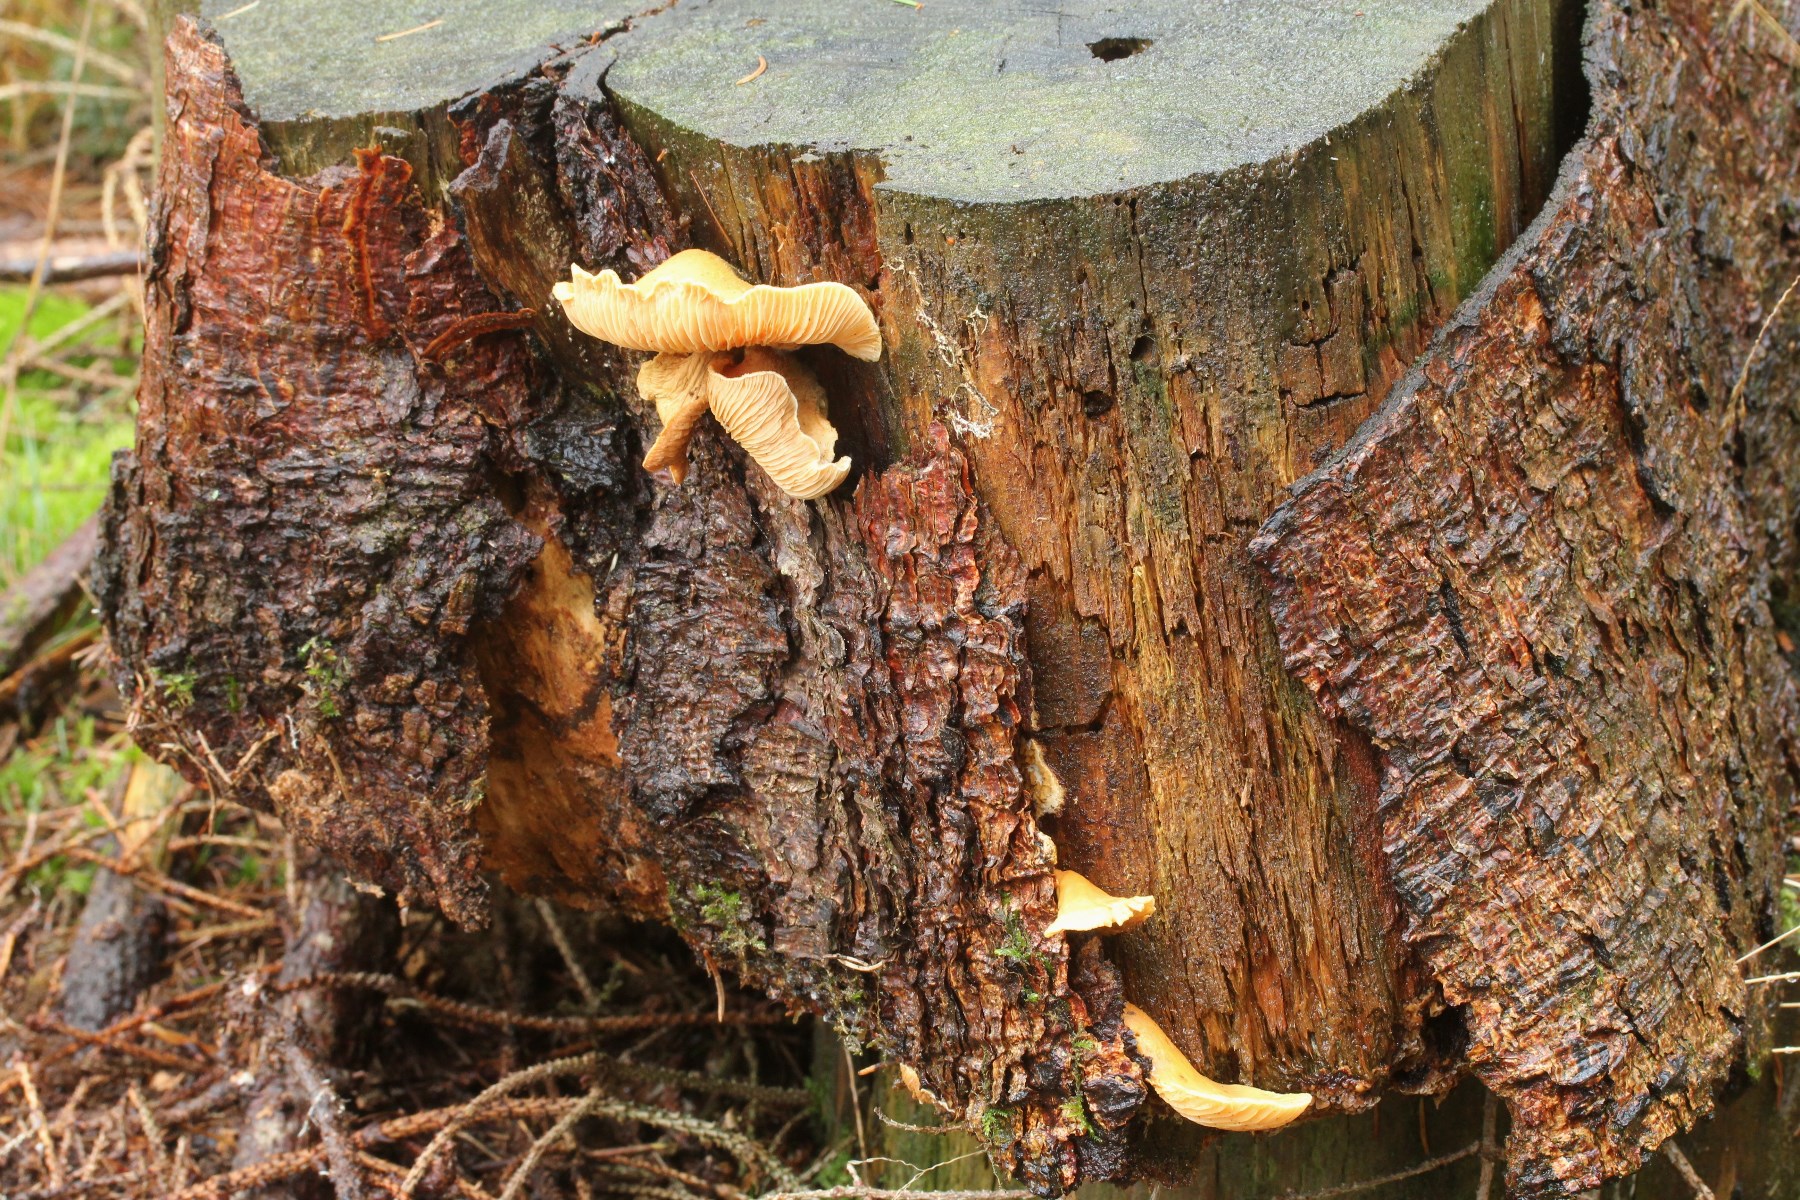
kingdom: Fungi
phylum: Basidiomycota
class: Agaricomycetes
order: Boletales
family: Tapinellaceae
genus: Tapinella
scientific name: Tapinella panuoides
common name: tømmer-viftesvamp
